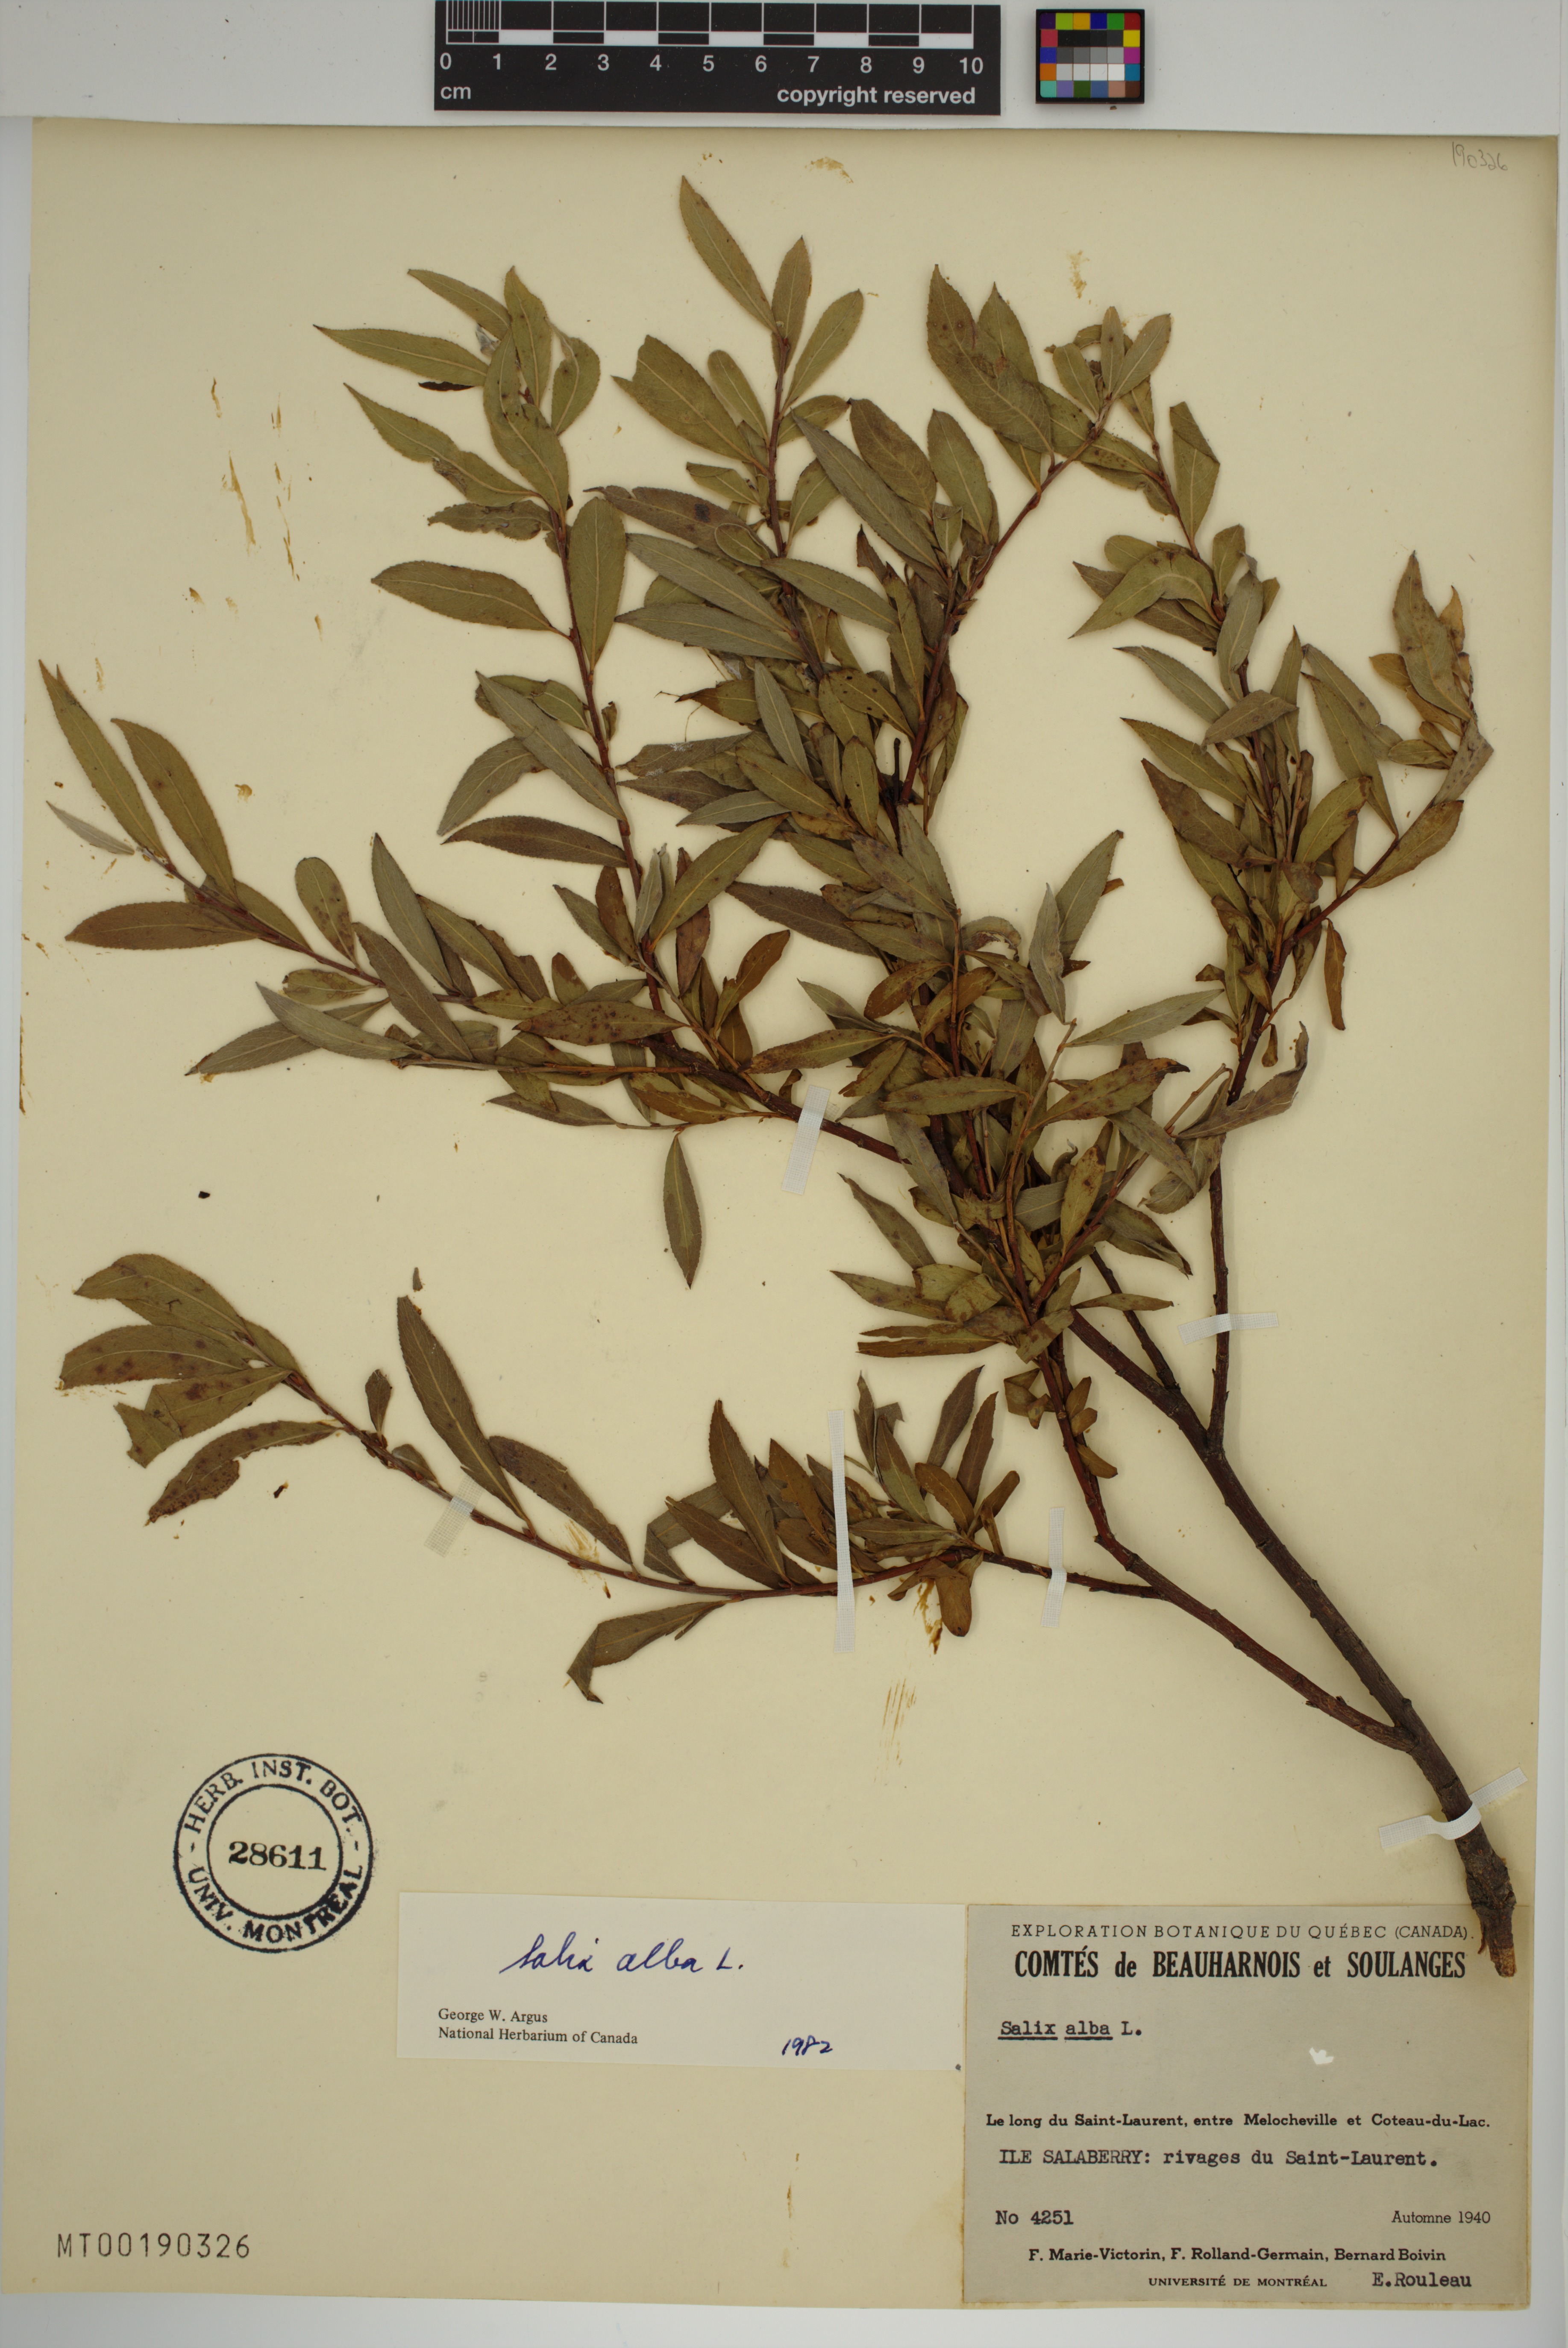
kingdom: Plantae
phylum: Tracheophyta
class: Magnoliopsida
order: Malpighiales
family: Salicaceae
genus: Salix
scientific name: Salix alba
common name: White willow
